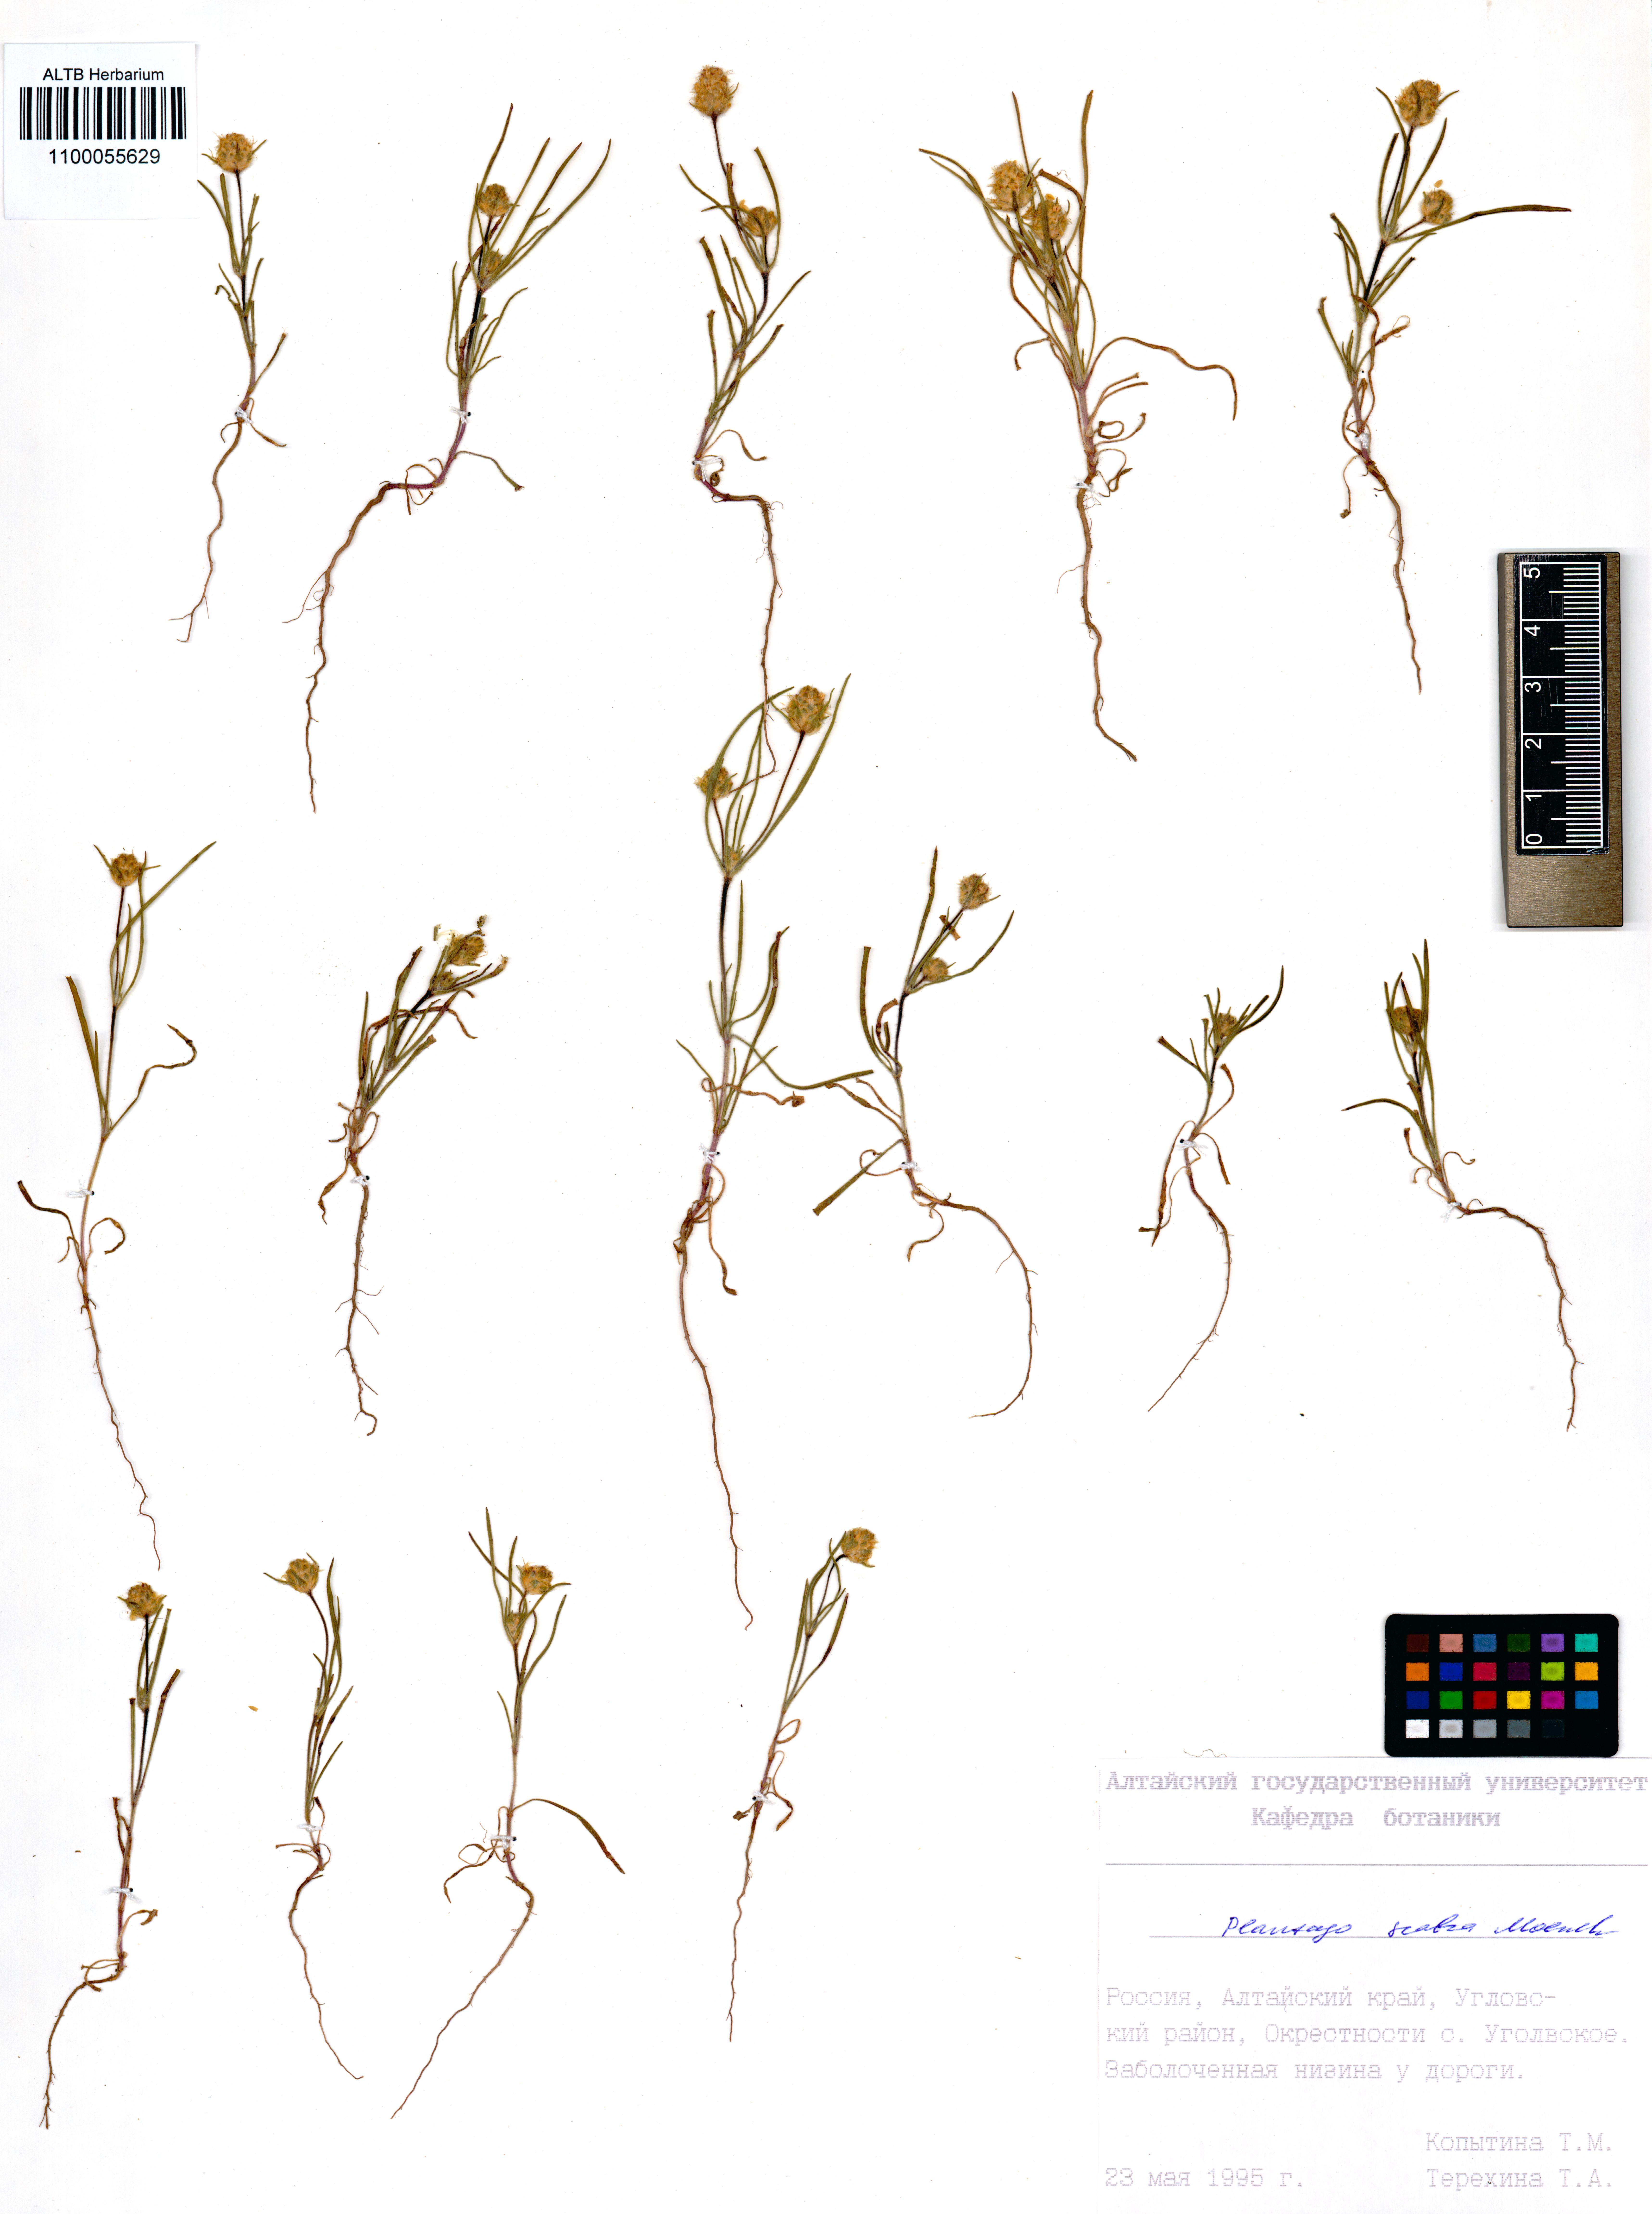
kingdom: Plantae
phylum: Tracheophyta
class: Magnoliopsida
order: Lamiales
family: Plantaginaceae
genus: Plantago
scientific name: Plantago arenaria
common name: Branched plantain
